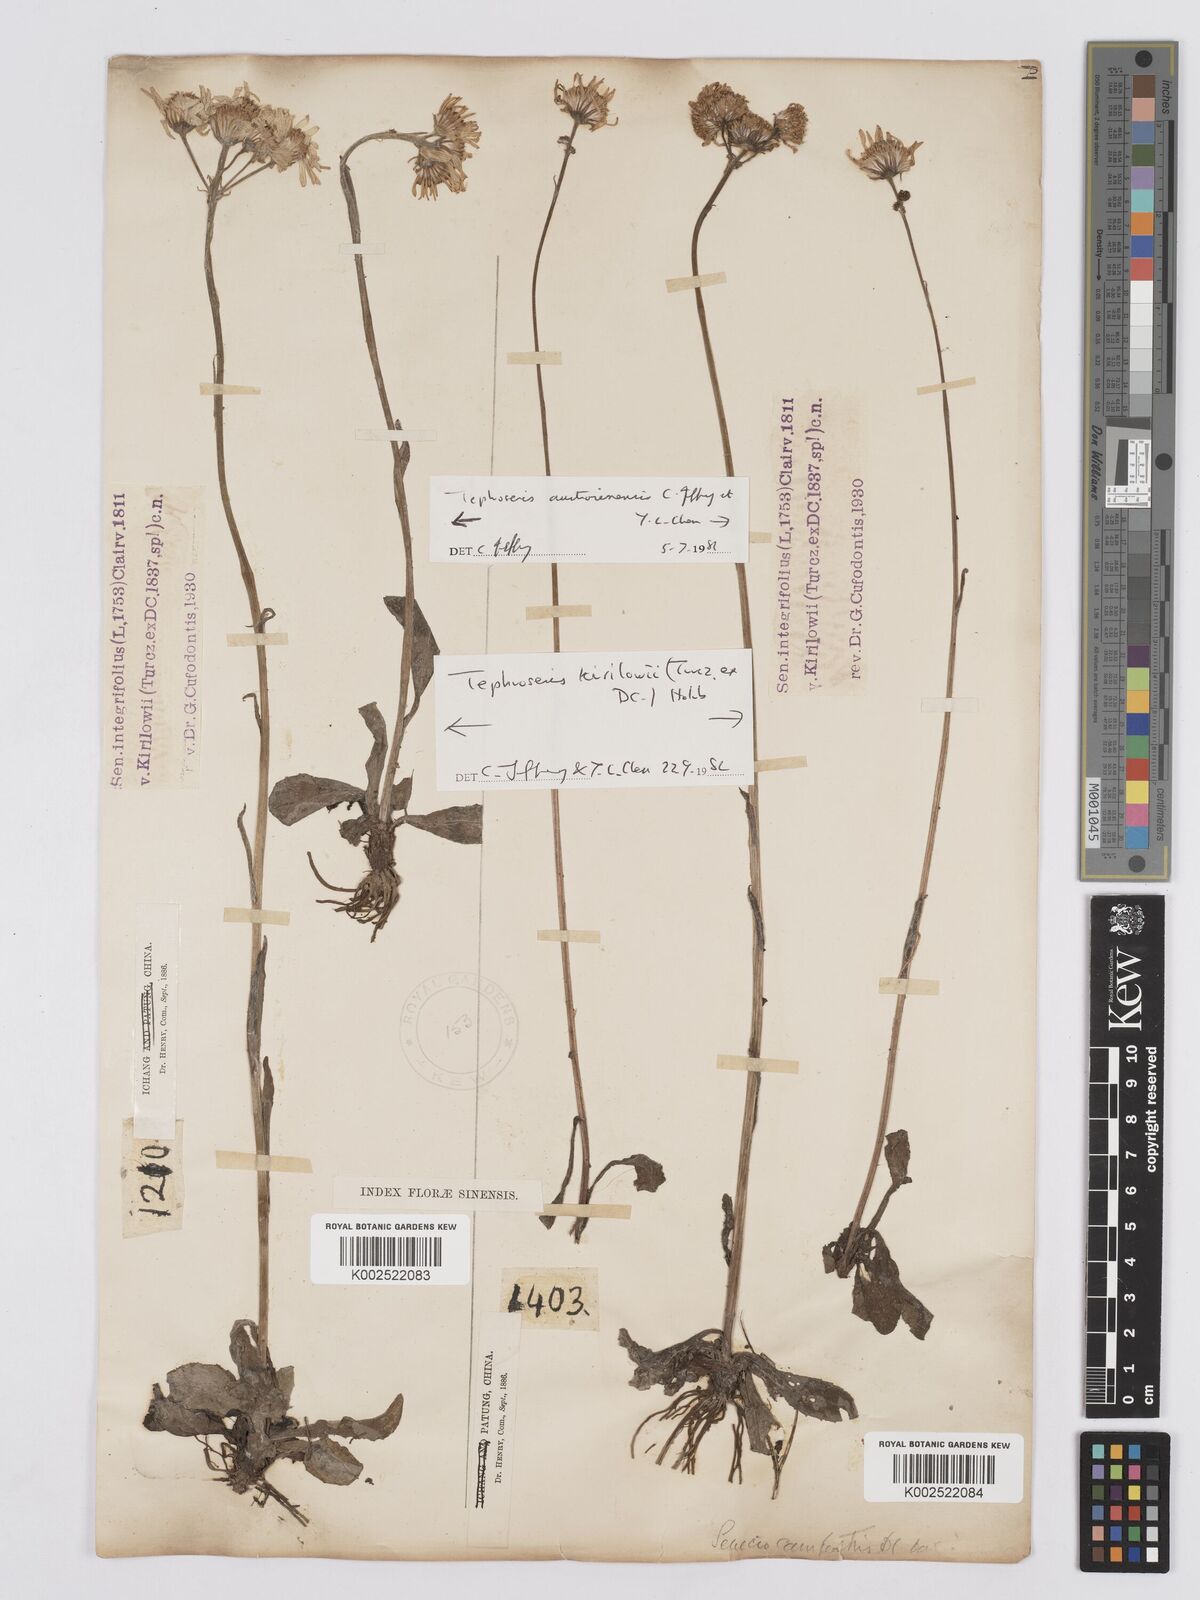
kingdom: Plantae
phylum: Tracheophyta
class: Magnoliopsida
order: Asterales
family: Asteraceae
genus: Tephroseris
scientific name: Tephroseris kirilowii
